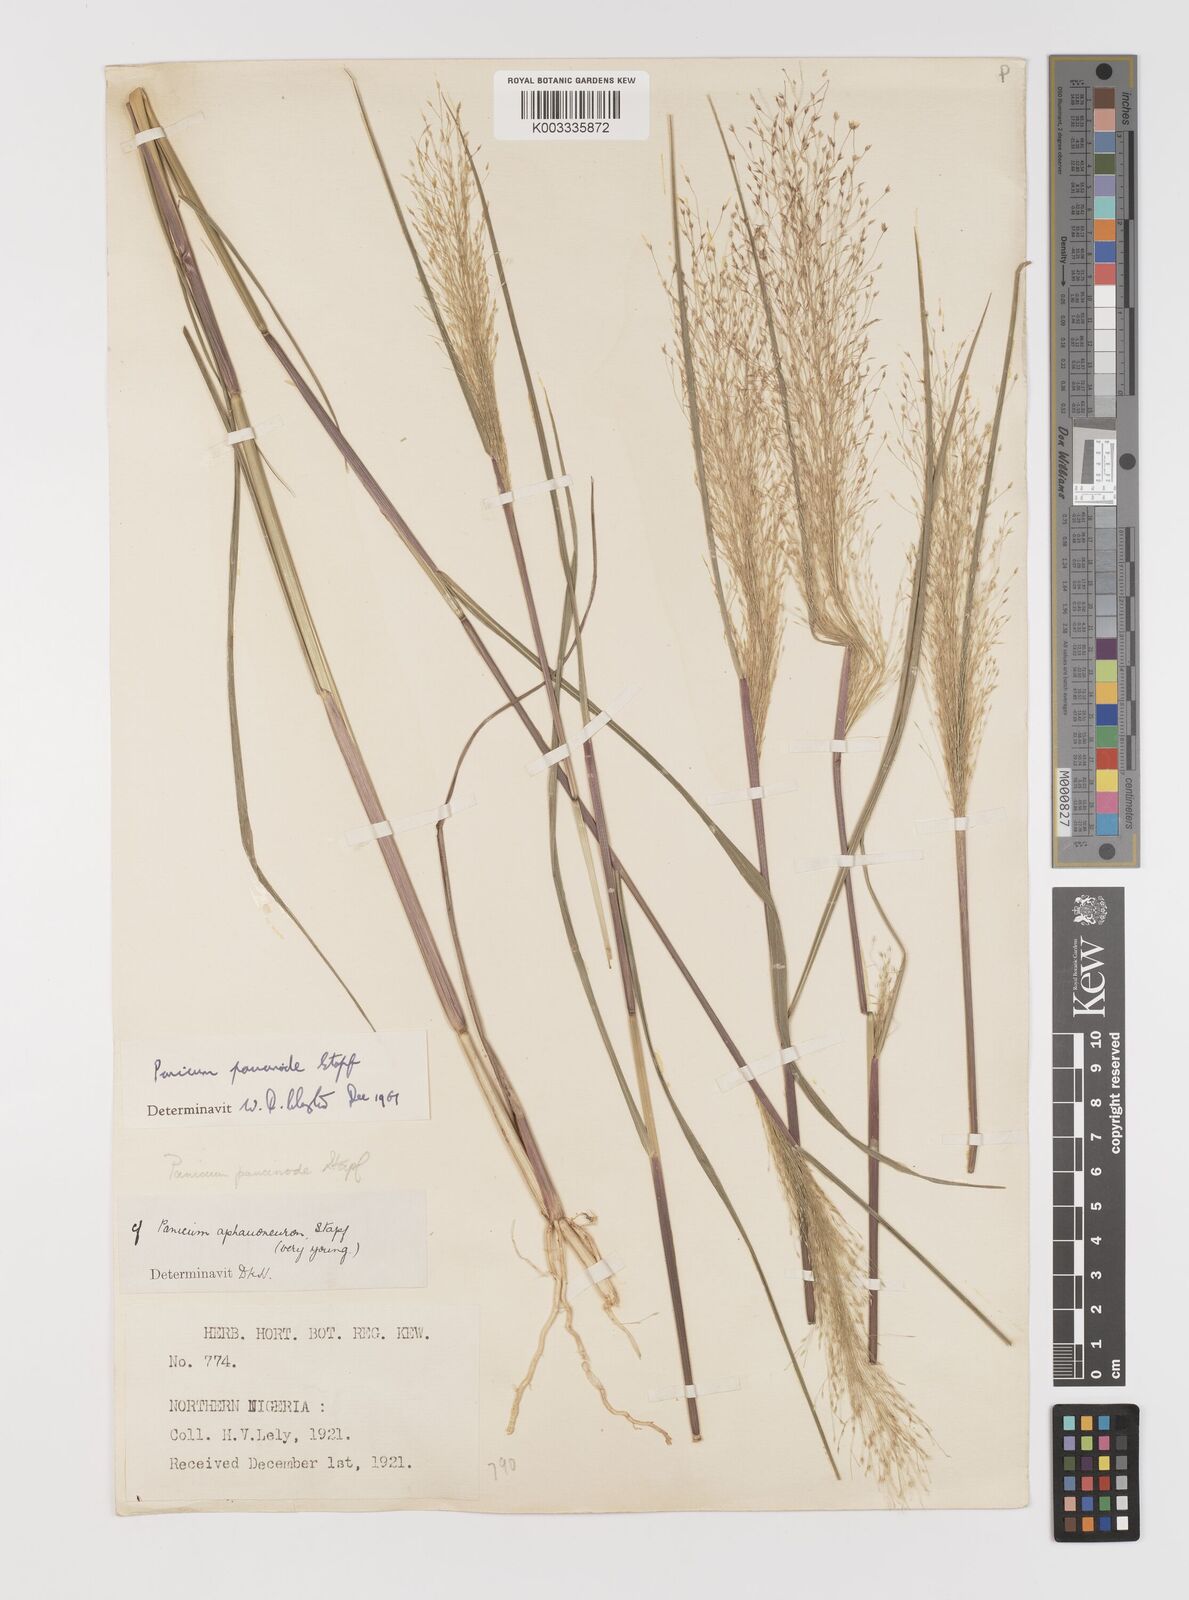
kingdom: Plantae
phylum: Tracheophyta
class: Liliopsida
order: Poales
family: Poaceae
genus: Panicum
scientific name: Panicum paucinode
